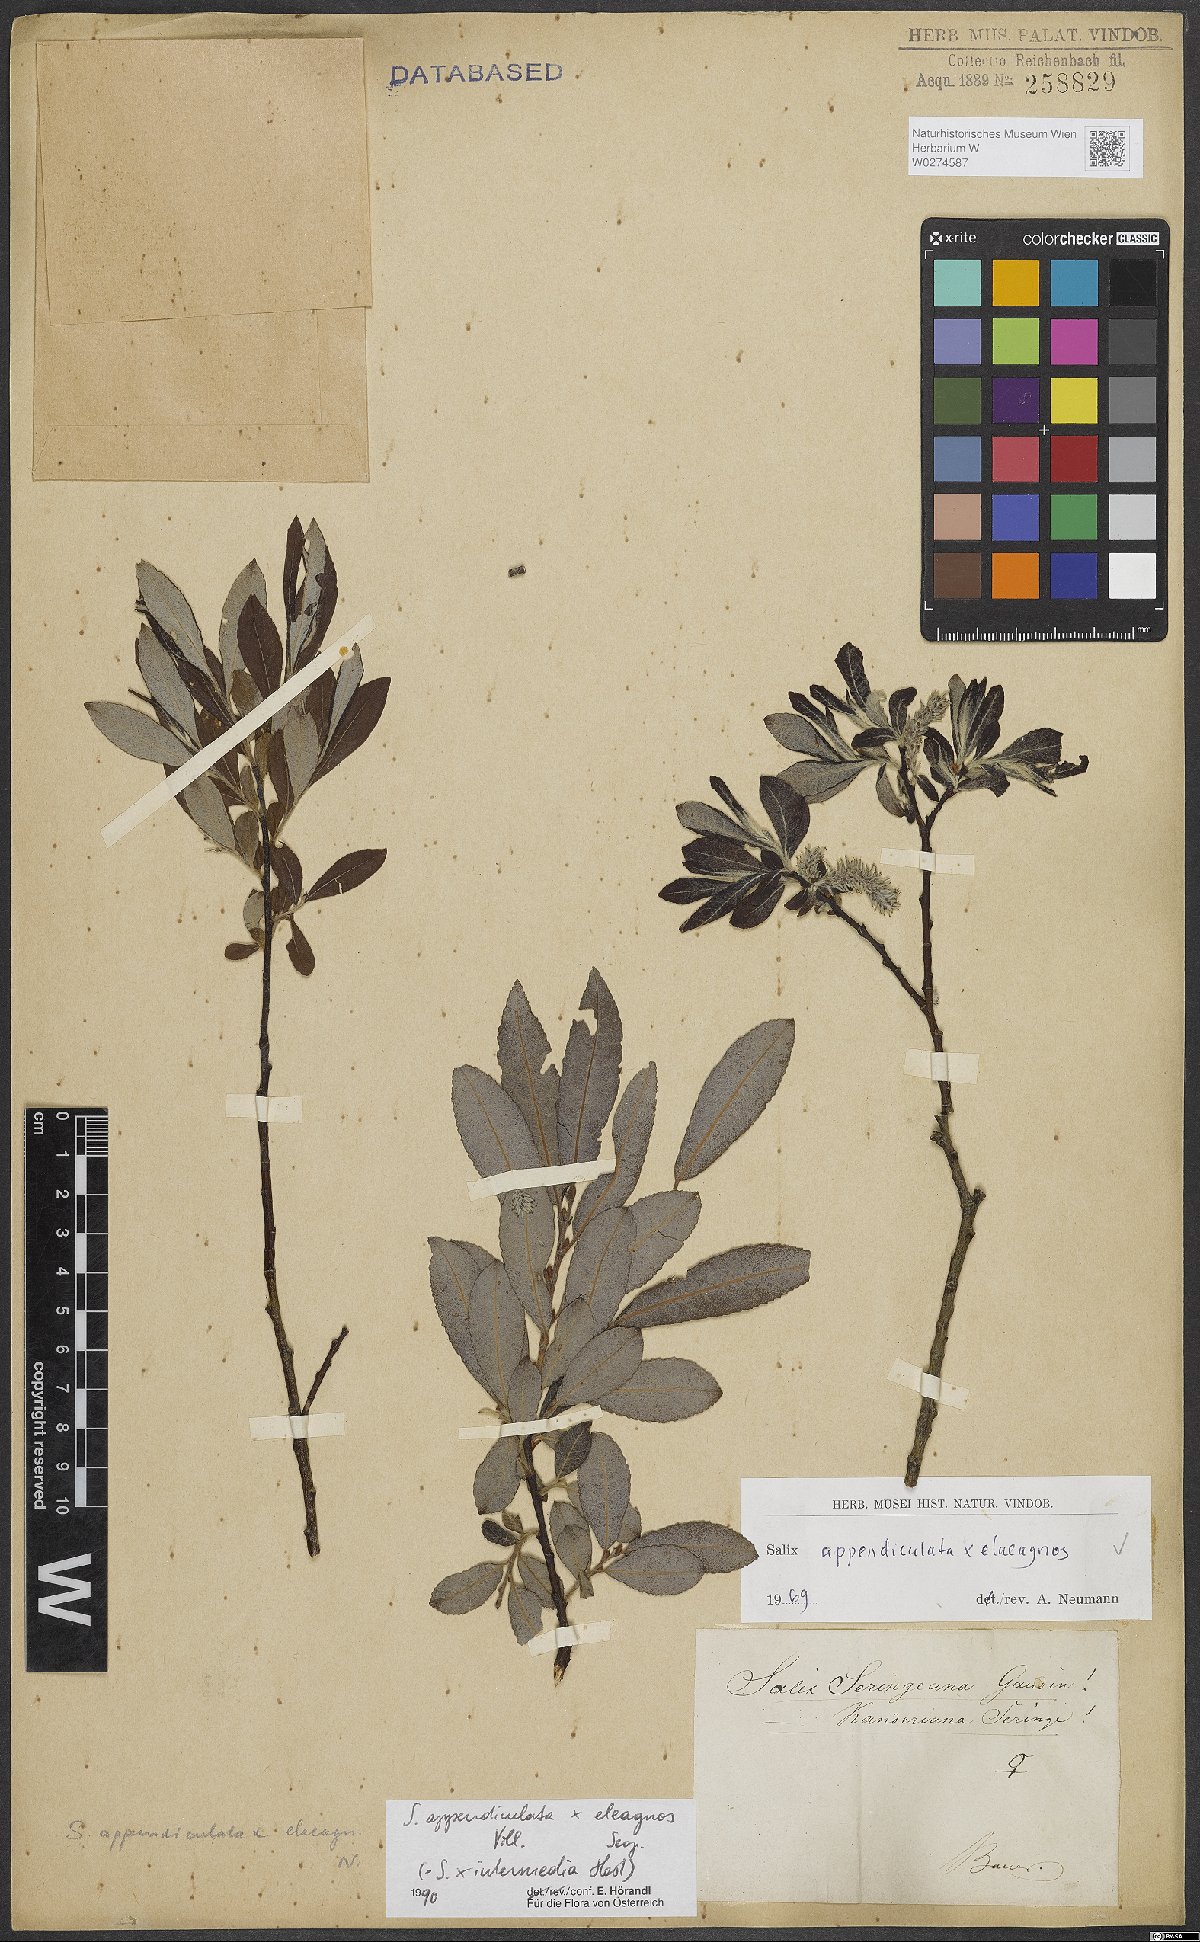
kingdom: Plantae
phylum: Tracheophyta
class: Magnoliopsida
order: Malpighiales
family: Salicaceae
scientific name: Salicaceae
